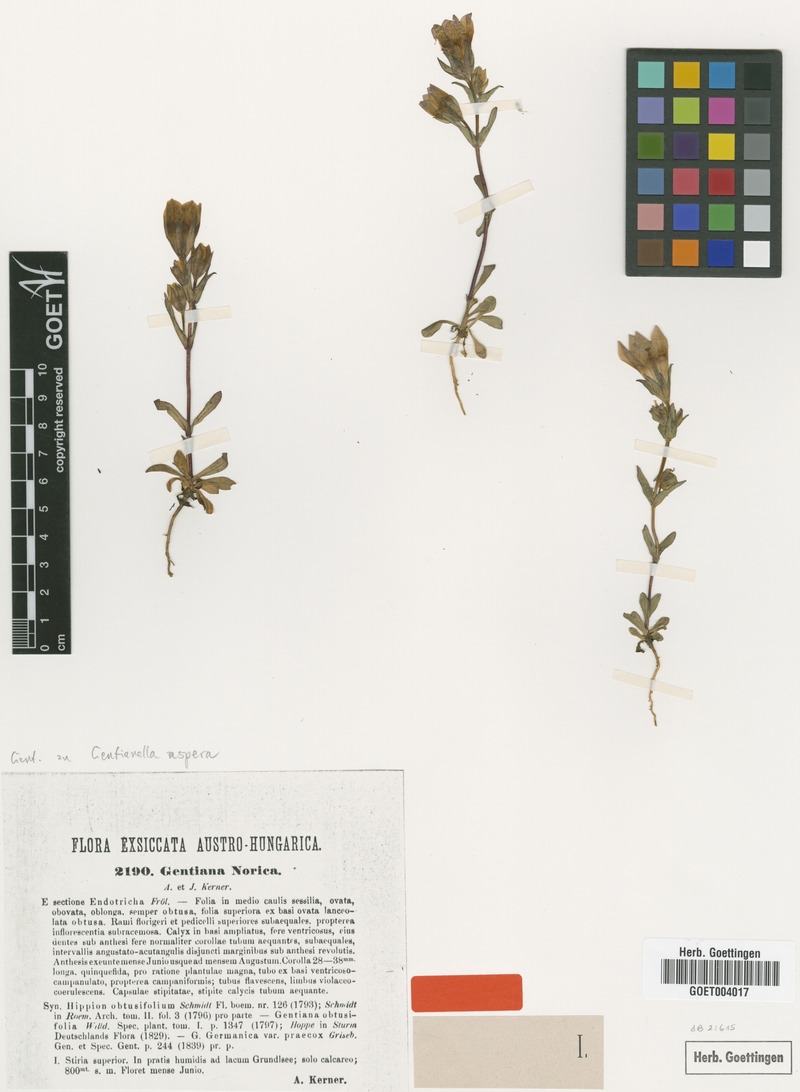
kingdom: Plantae
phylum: Tracheophyta
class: Magnoliopsida
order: Gentianales
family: Gentianaceae
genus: Gentianella
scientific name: Gentianella obtusifolia
